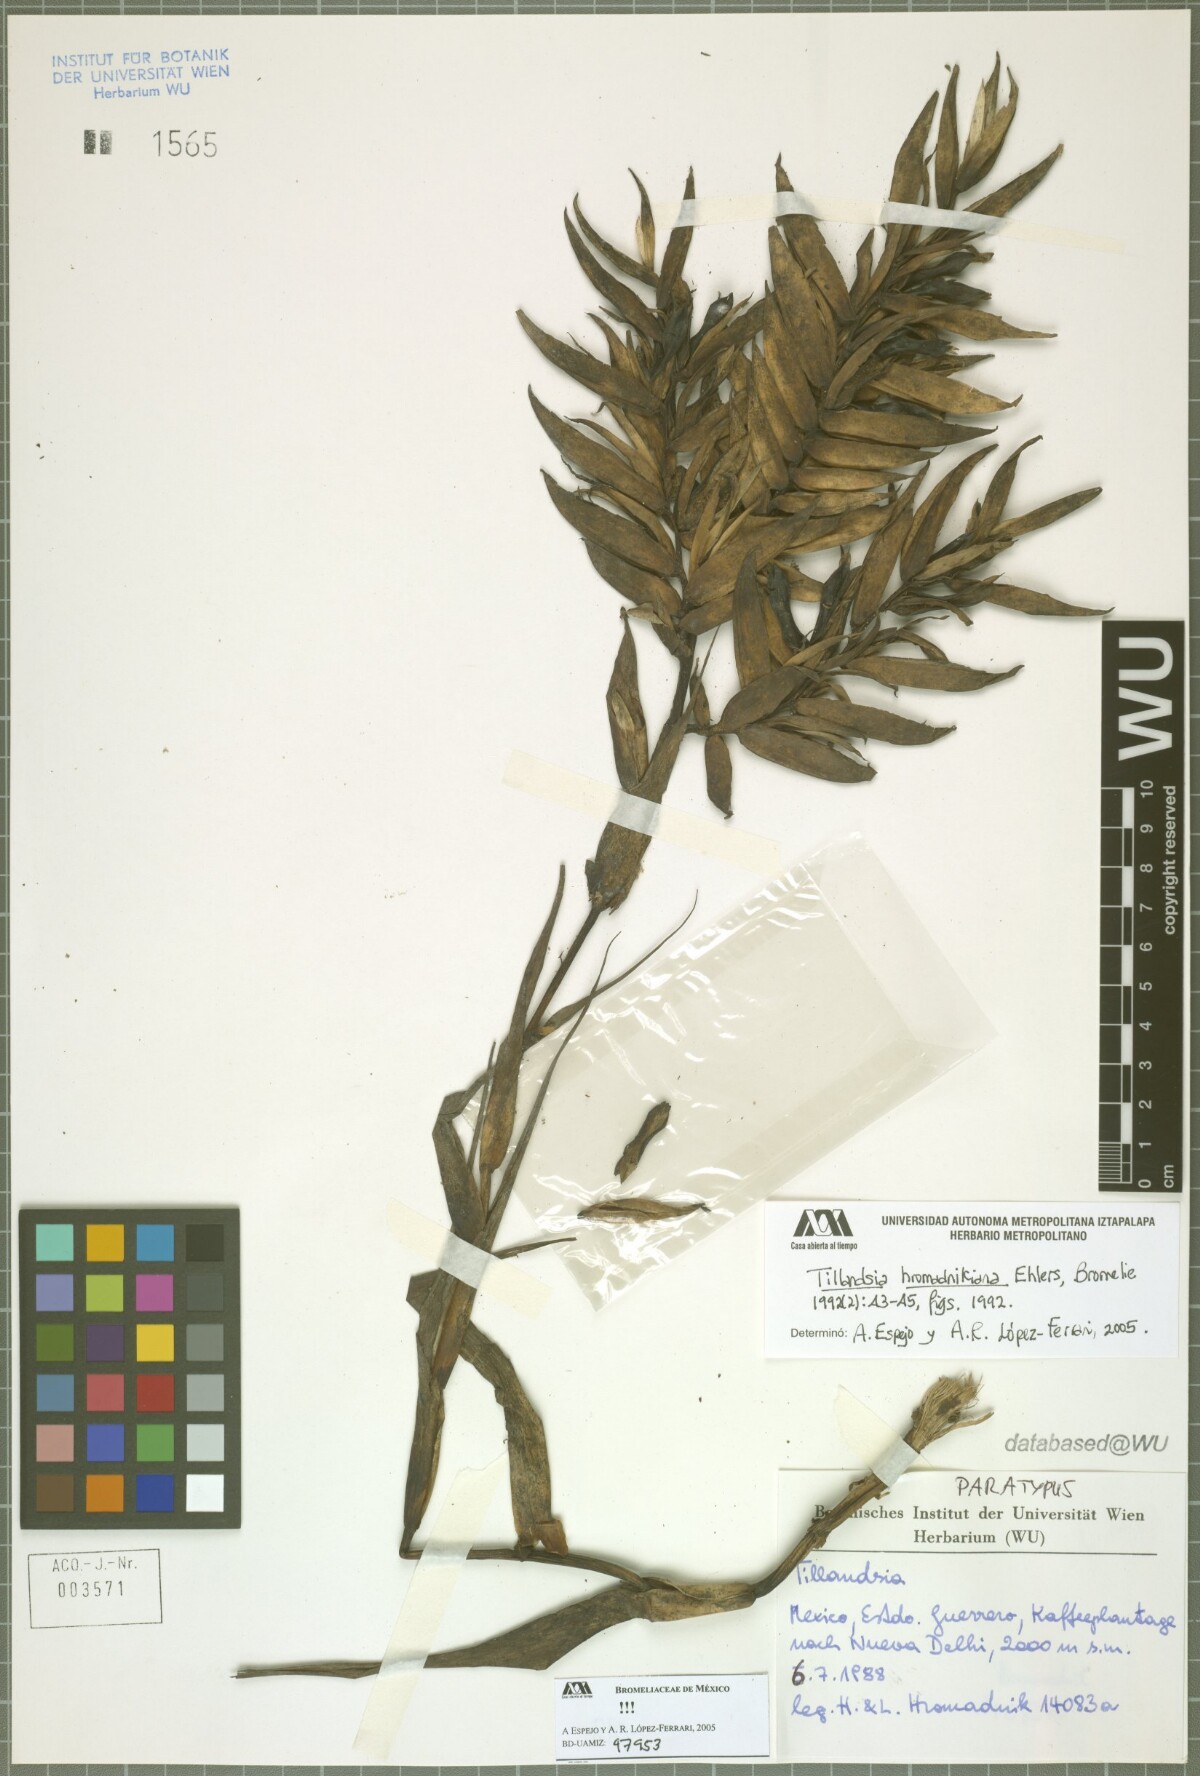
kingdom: Plantae
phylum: Tracheophyta
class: Liliopsida
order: Poales
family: Bromeliaceae
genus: Tillandsia
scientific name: Tillandsia prodigiosa
